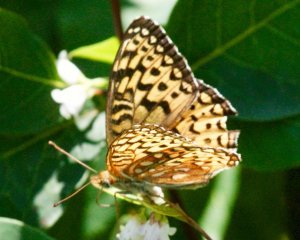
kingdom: Animalia
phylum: Arthropoda
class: Insecta
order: Lepidoptera
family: Nymphalidae
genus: Speyeria
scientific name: Speyeria atlantis
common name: Atlantis Fritillary
